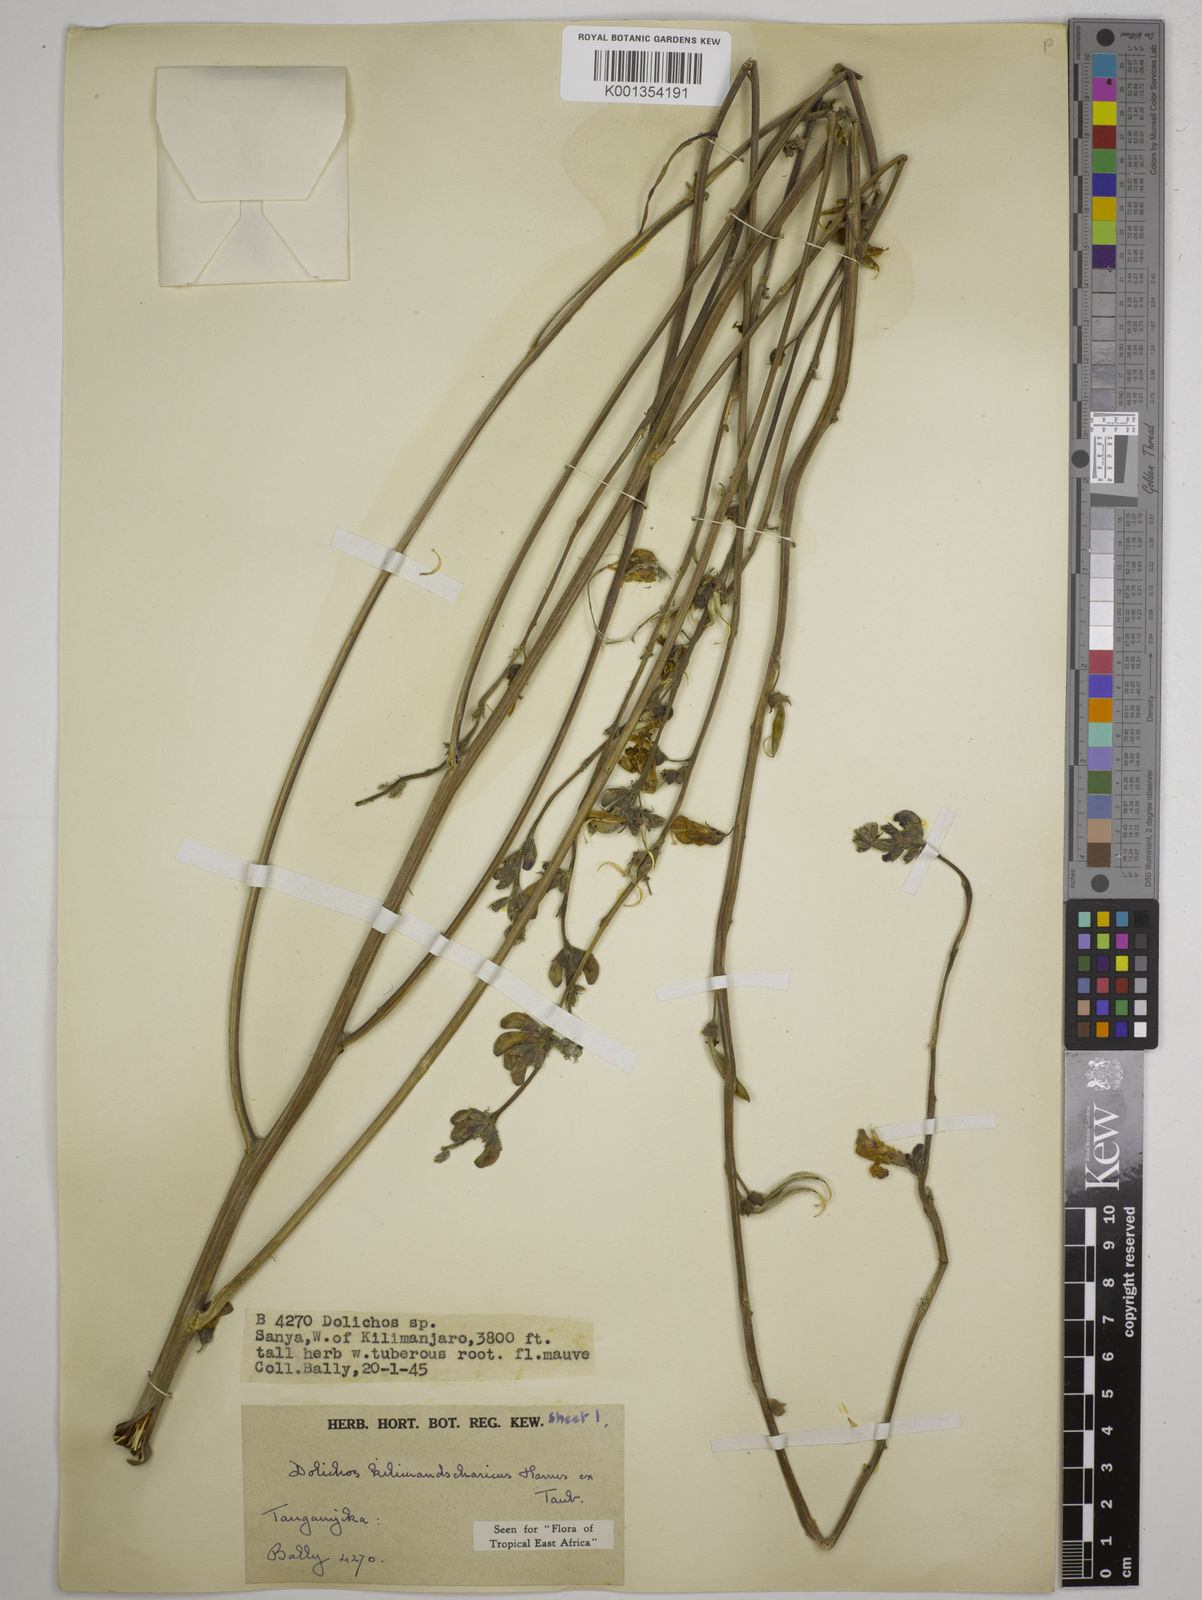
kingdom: Plantae
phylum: Tracheophyta
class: Magnoliopsida
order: Fabales
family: Fabaceae
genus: Dolichos
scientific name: Dolichos kilimandscharicus
